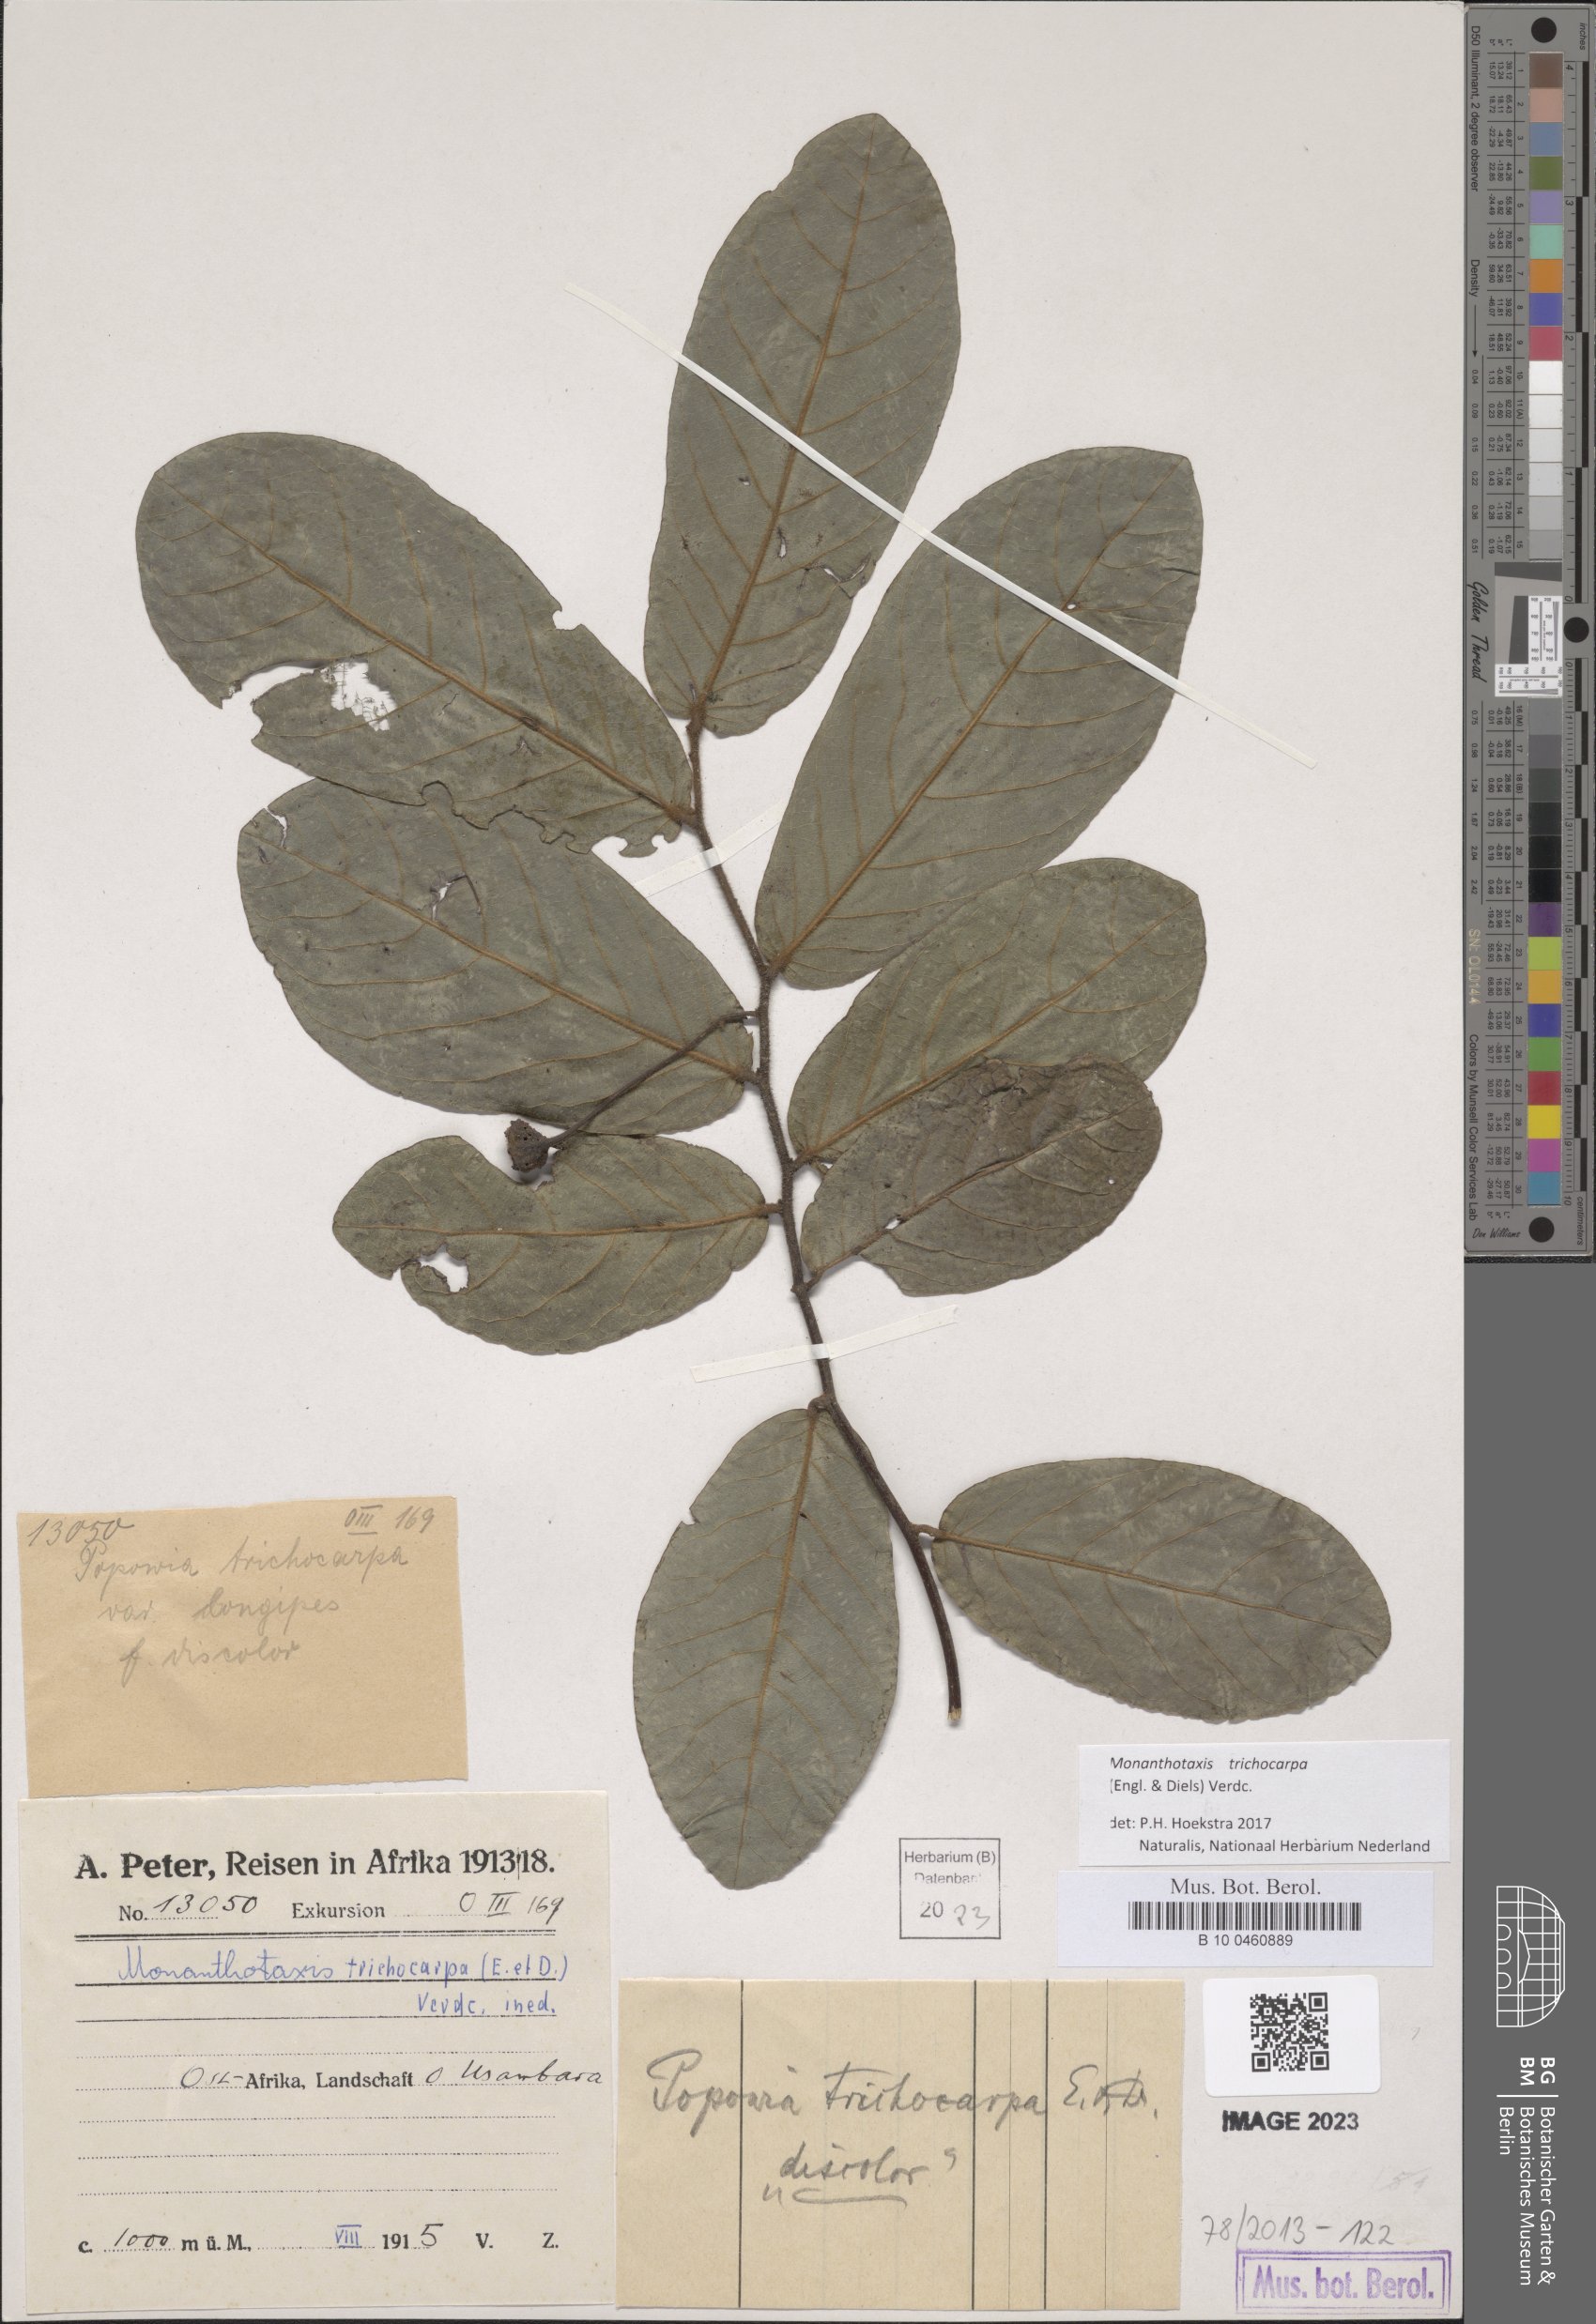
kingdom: Plantae
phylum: Tracheophyta
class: Magnoliopsida
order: Magnoliales
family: Annonaceae
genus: Monanthotaxis
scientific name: Monanthotaxis trichocarpa
